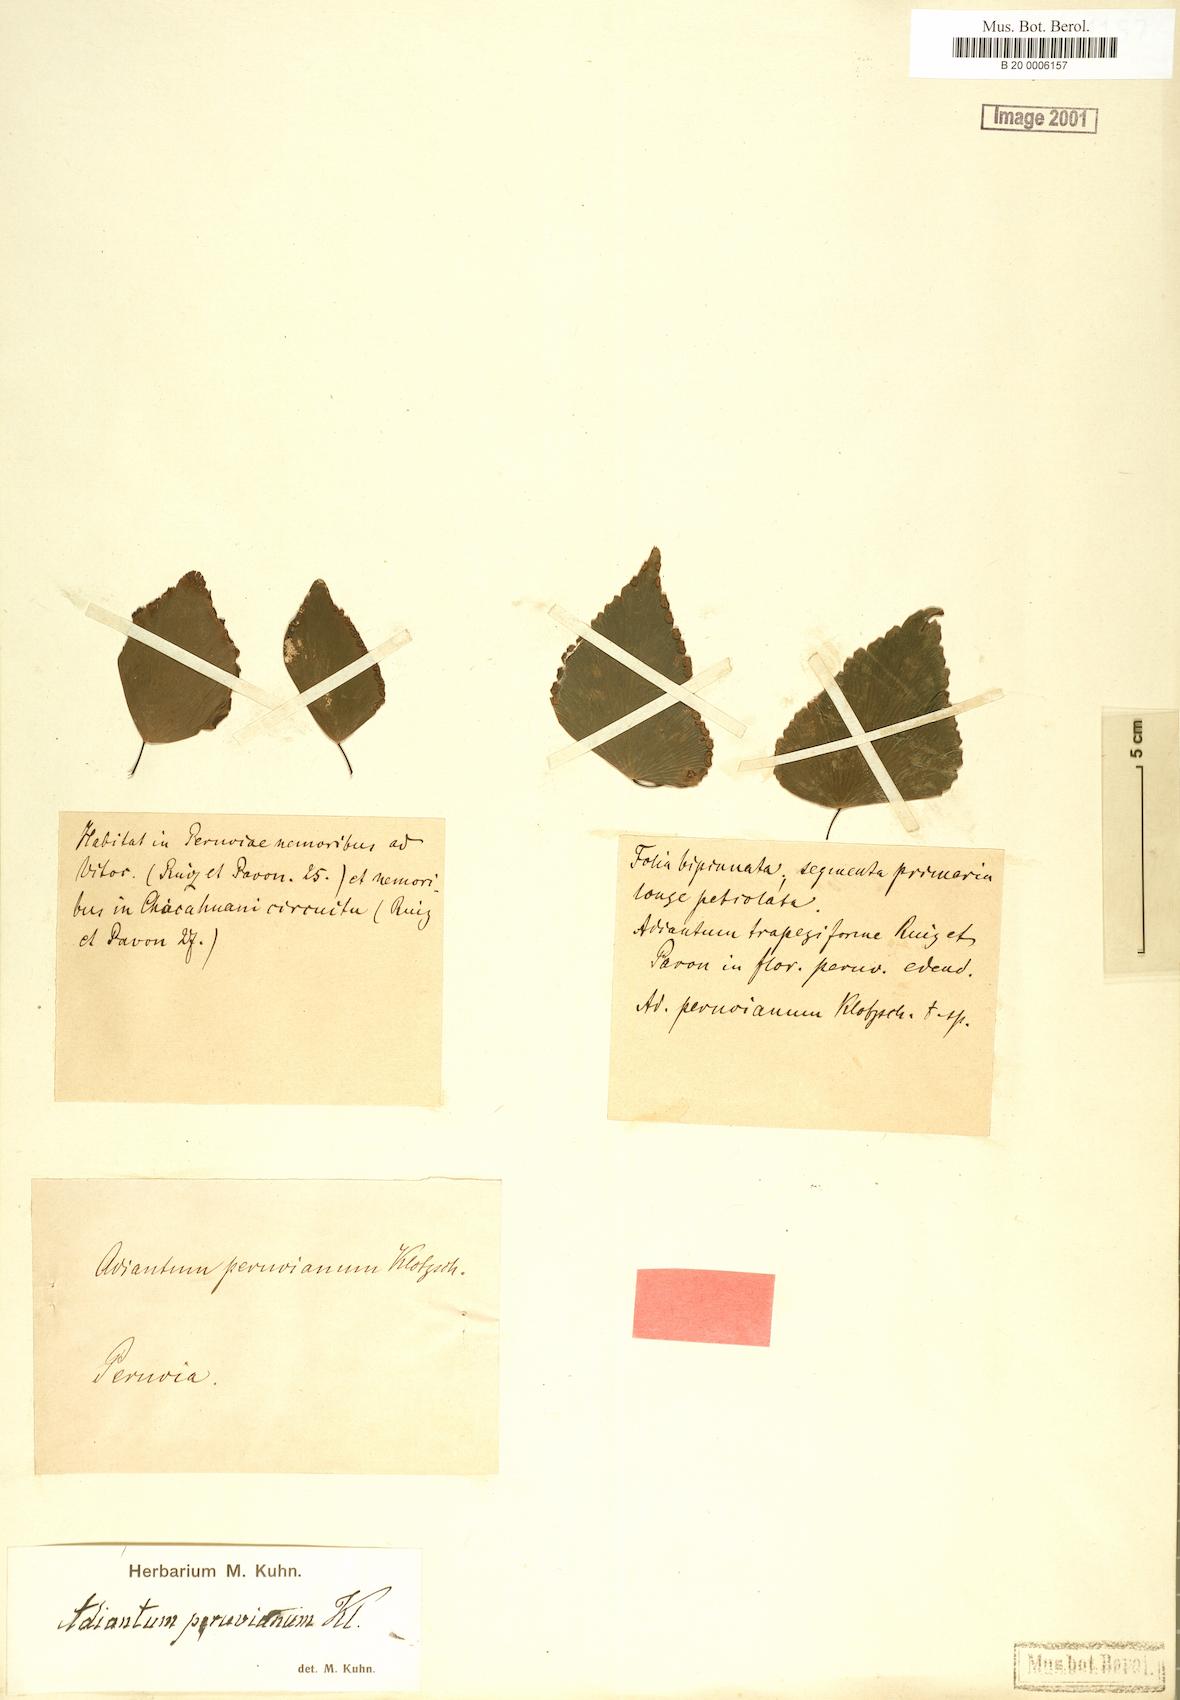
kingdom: Plantae
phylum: Tracheophyta
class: Polypodiopsida
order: Polypodiales
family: Pteridaceae
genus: Adiantum
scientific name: Adiantum peruvianum
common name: Silver-dollar maidenhair fern
